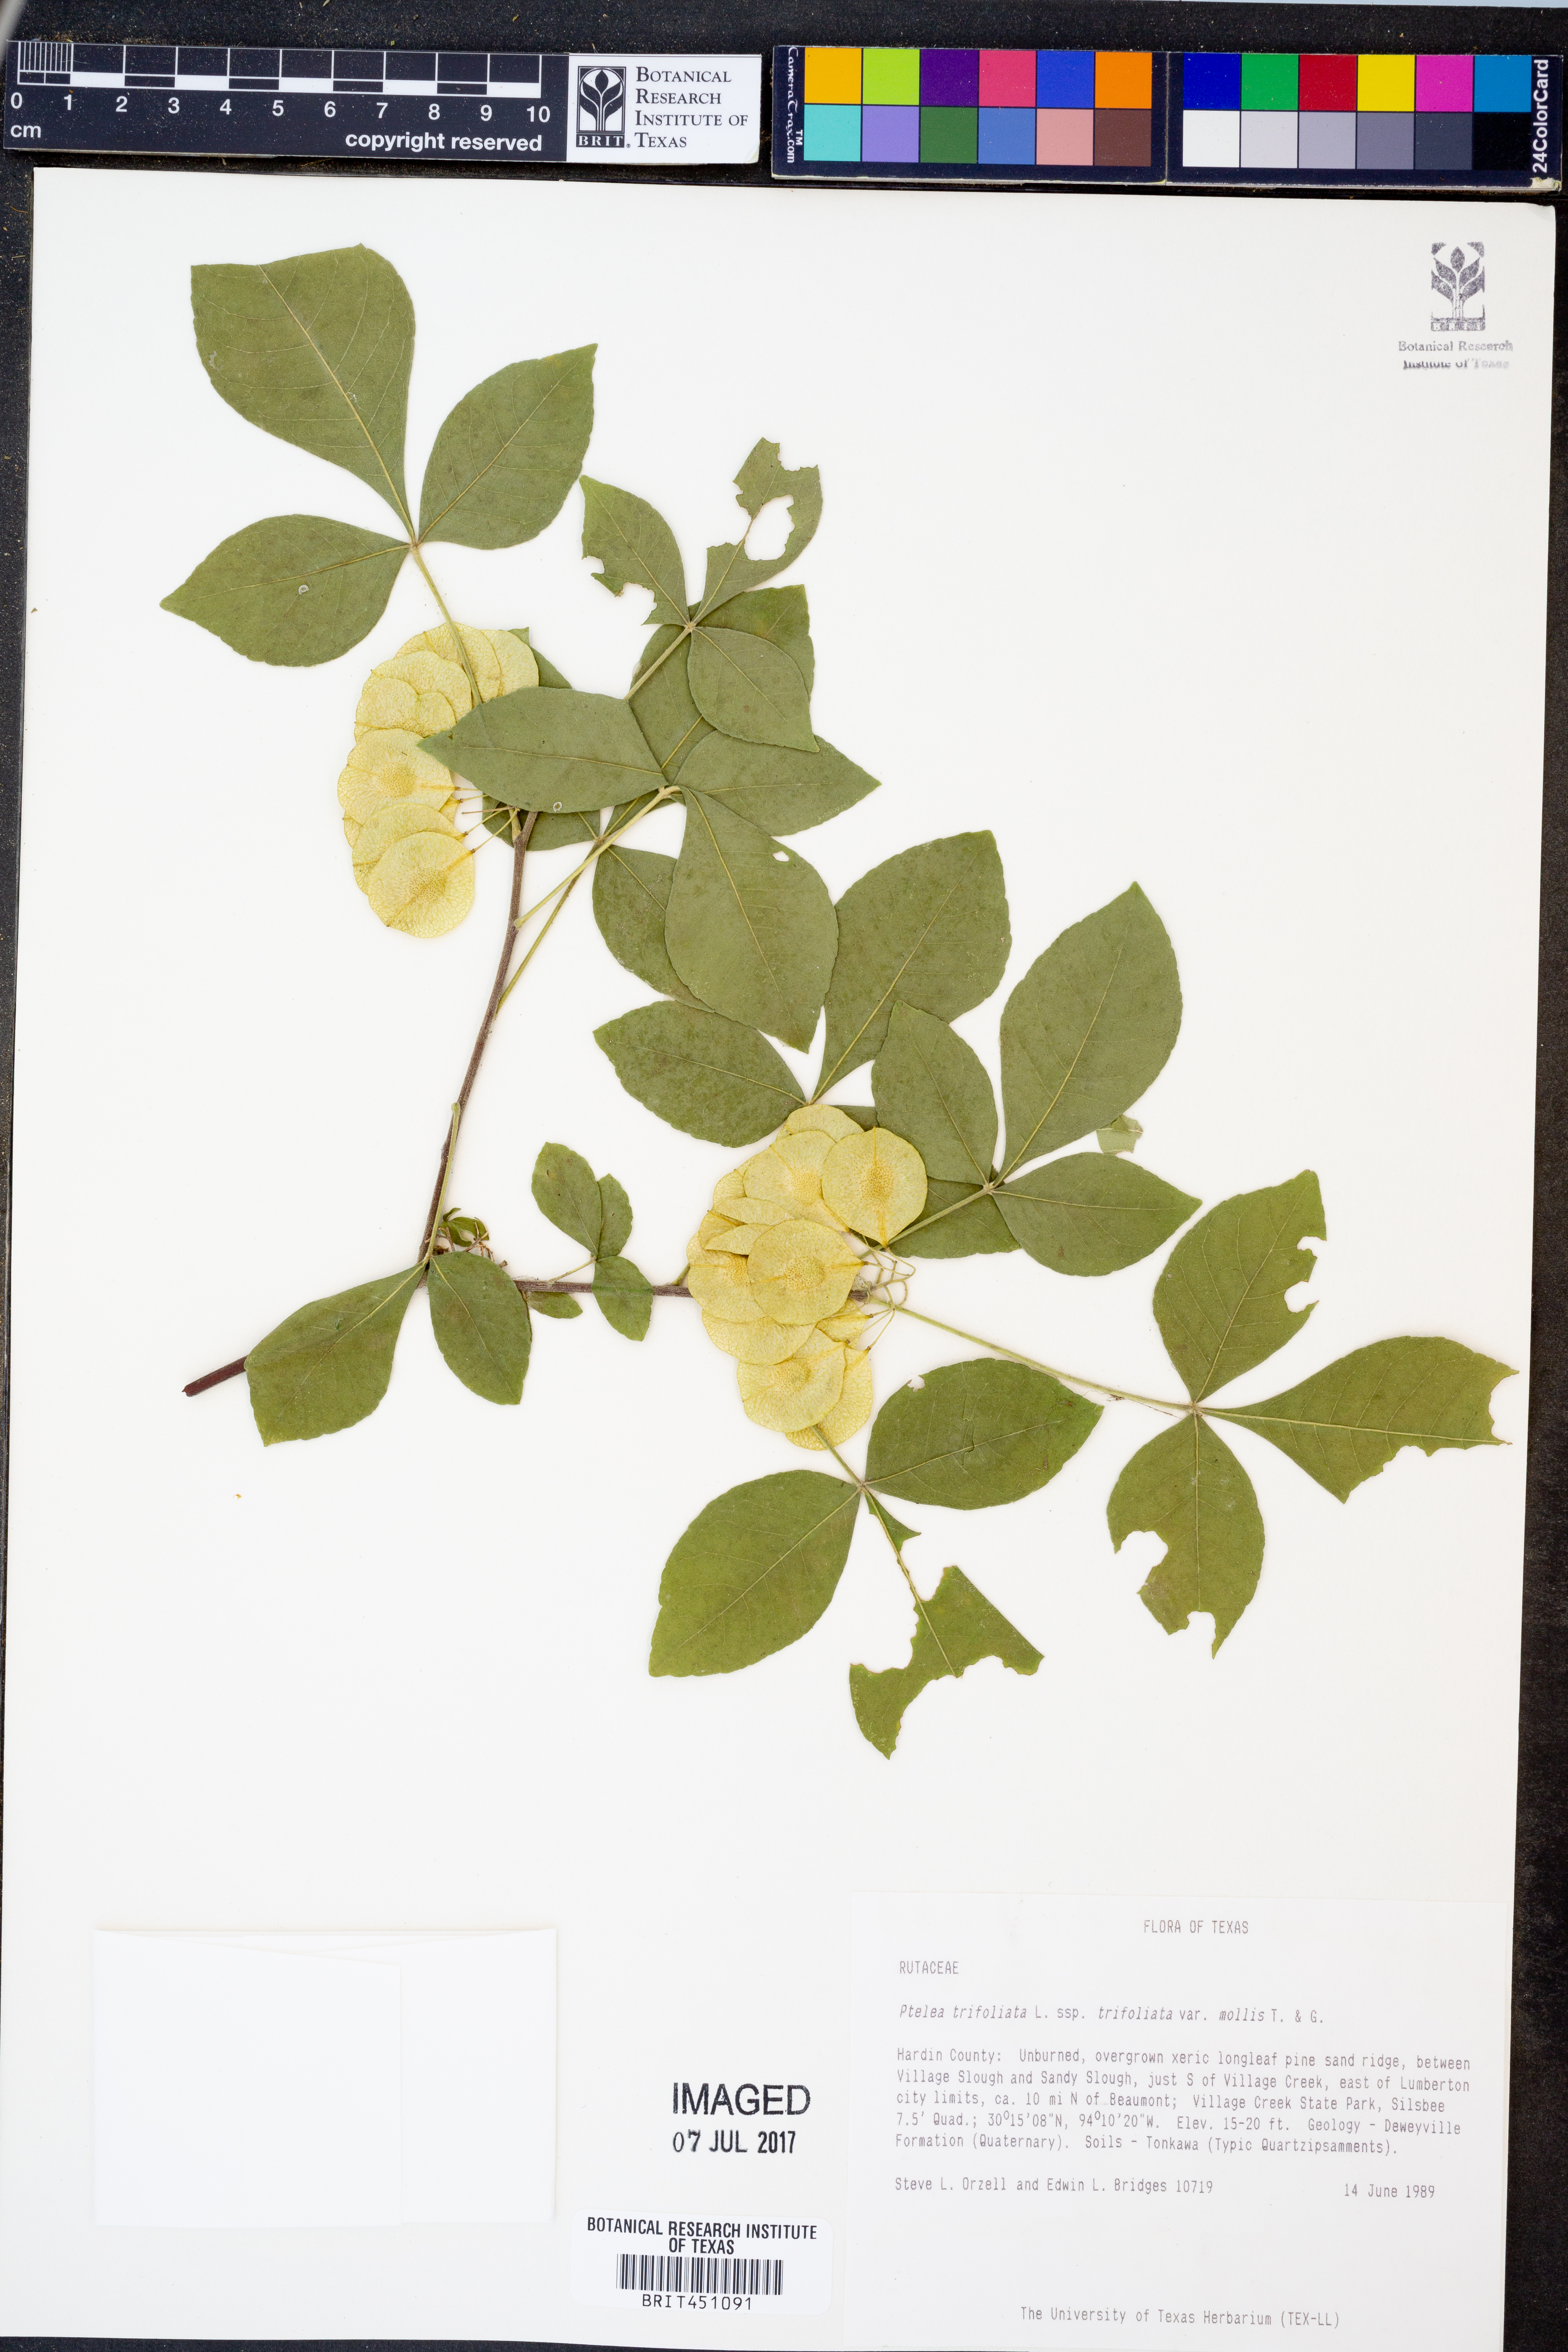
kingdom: Plantae
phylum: Tracheophyta
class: Magnoliopsida
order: Sapindales
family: Rutaceae
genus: Ptelea
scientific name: Ptelea trifoliata
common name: Common hop-tree
